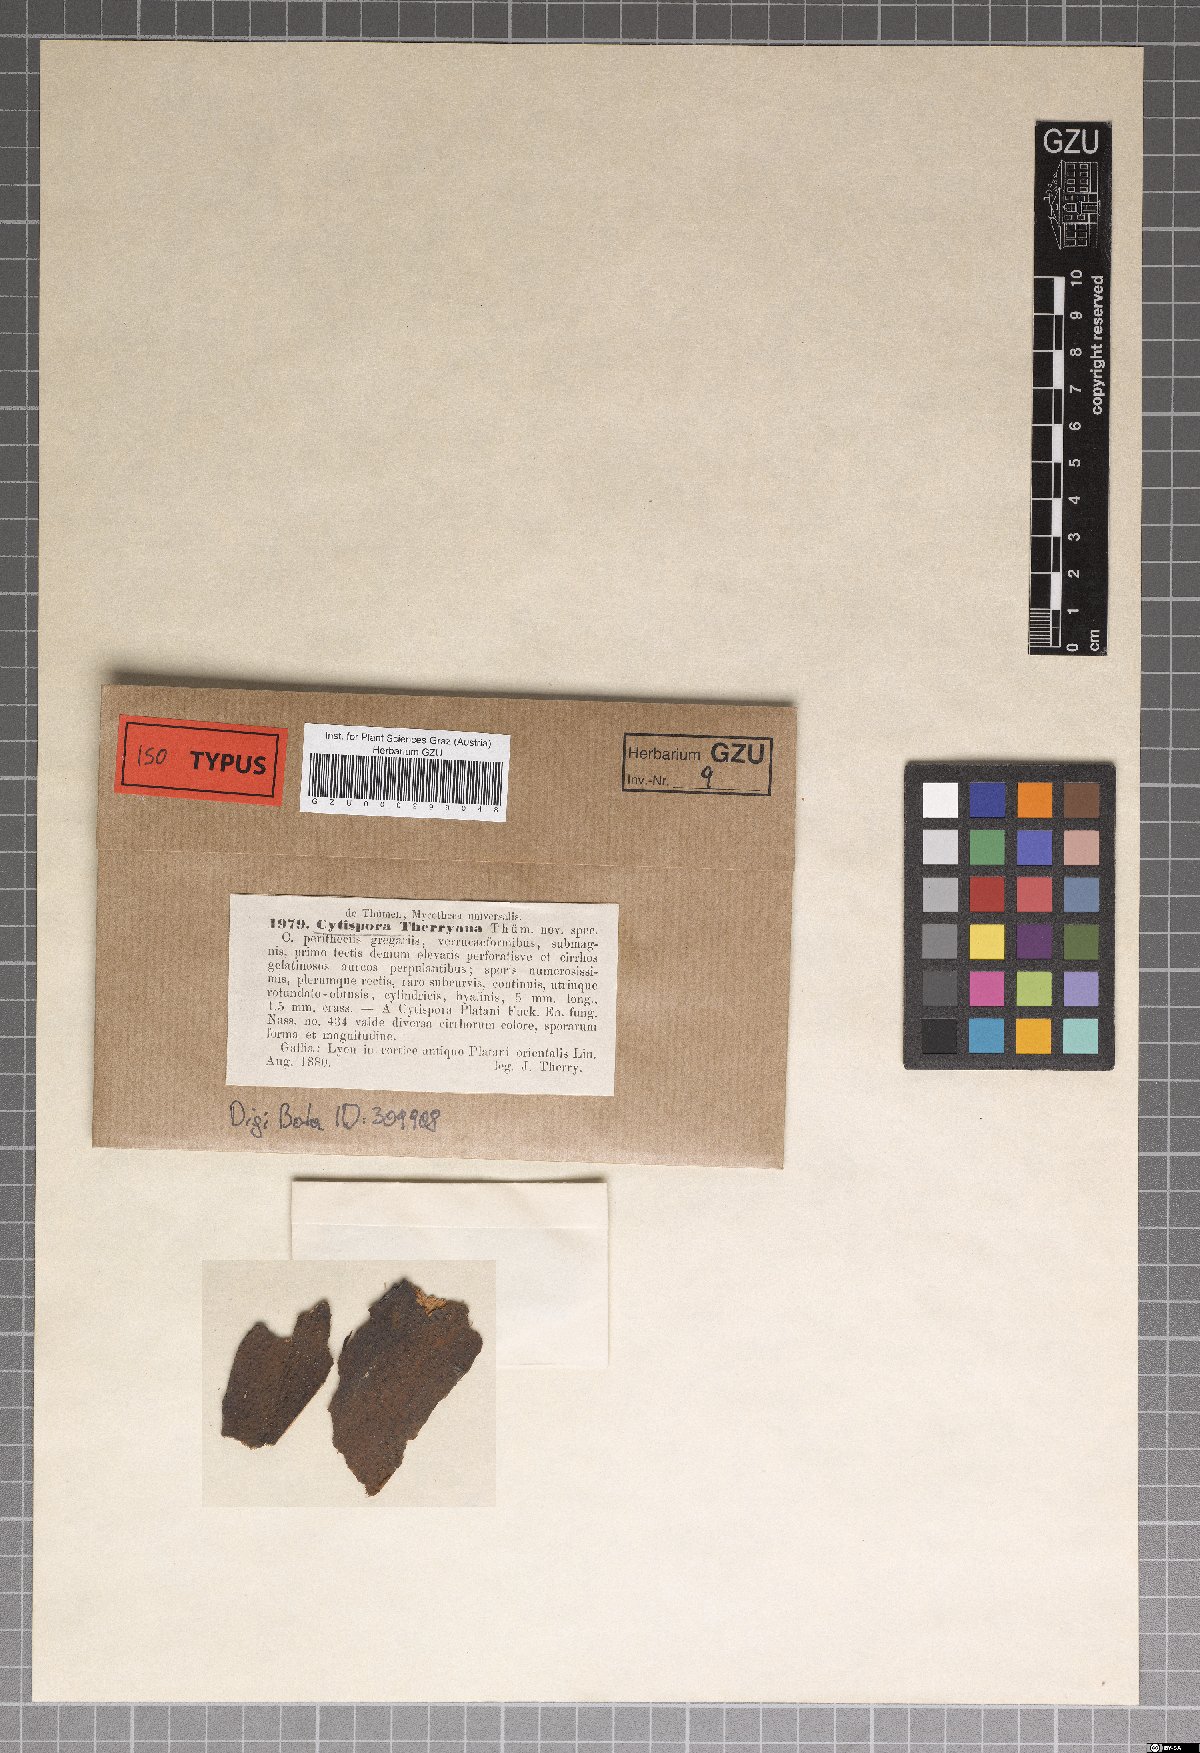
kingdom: Fungi
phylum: Ascomycota
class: Sordariomycetes
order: Diaporthales
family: Valsaceae
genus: Cytospora
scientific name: Cytospora therryana
